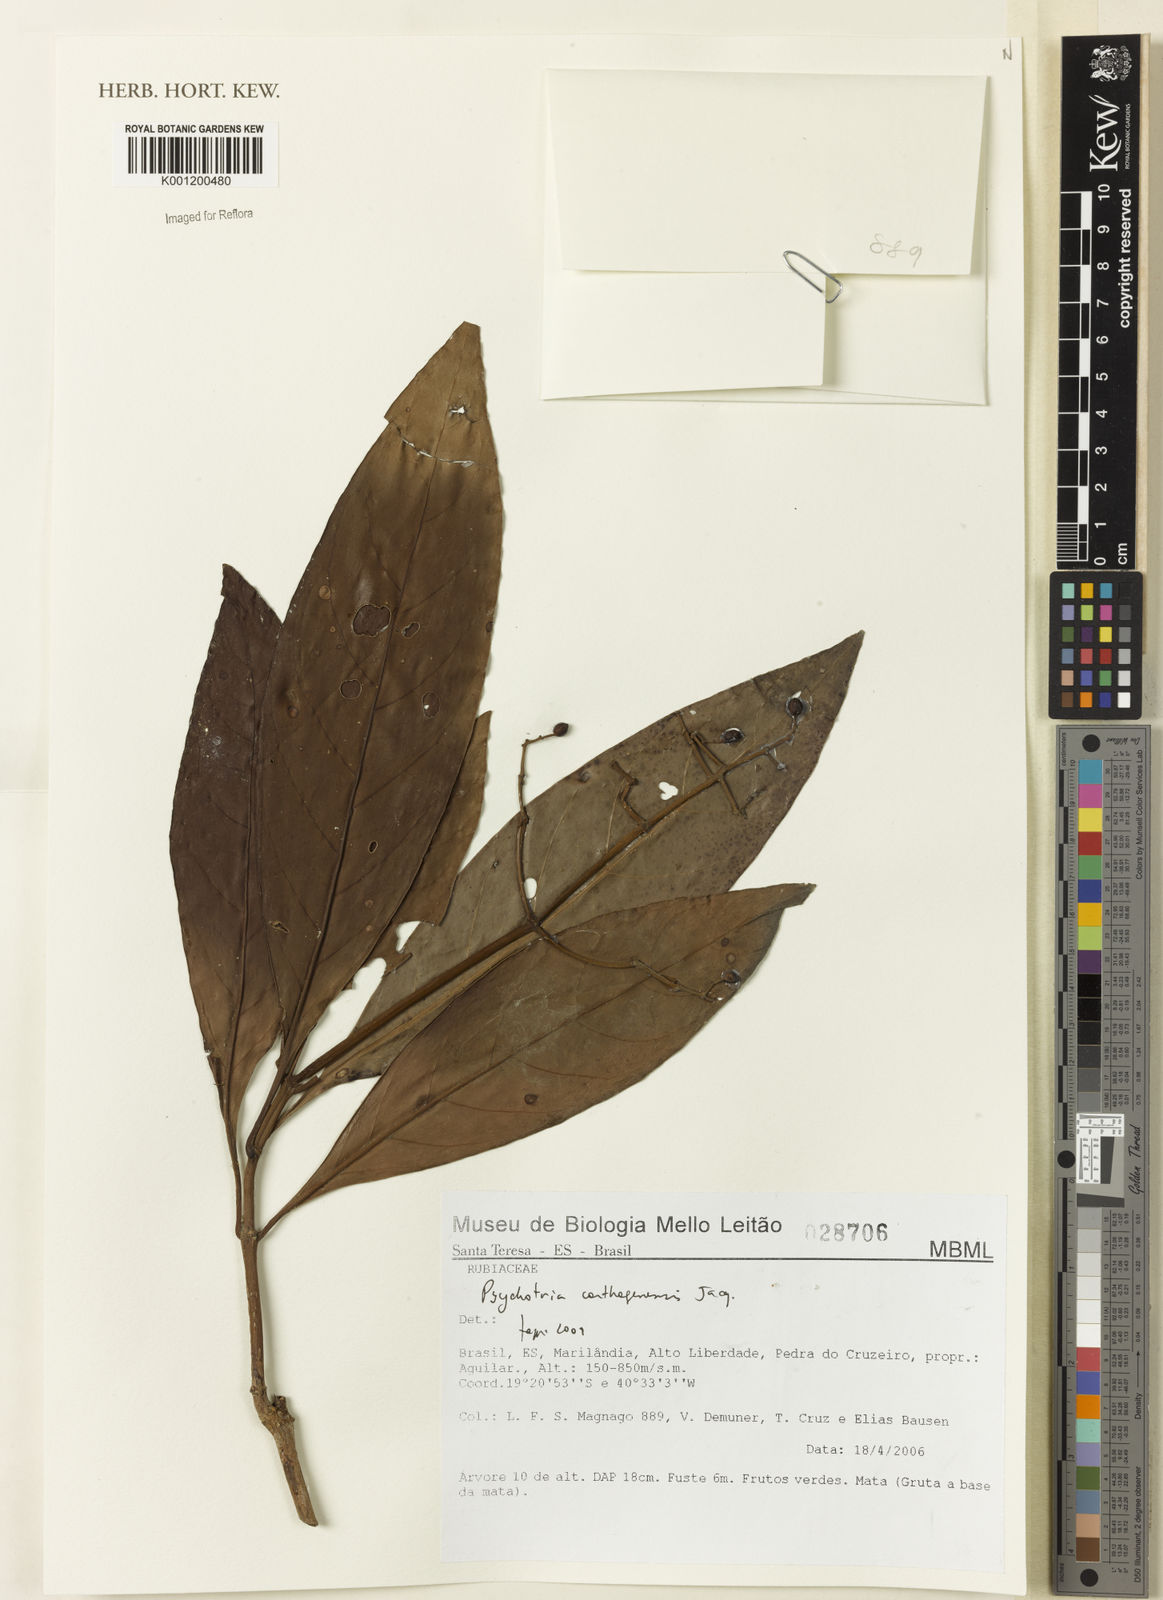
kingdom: Plantae
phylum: Tracheophyta
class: Magnoliopsida
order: Gentianales
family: Rubiaceae
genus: Psychotria
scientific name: Psychotria carthagenensis
